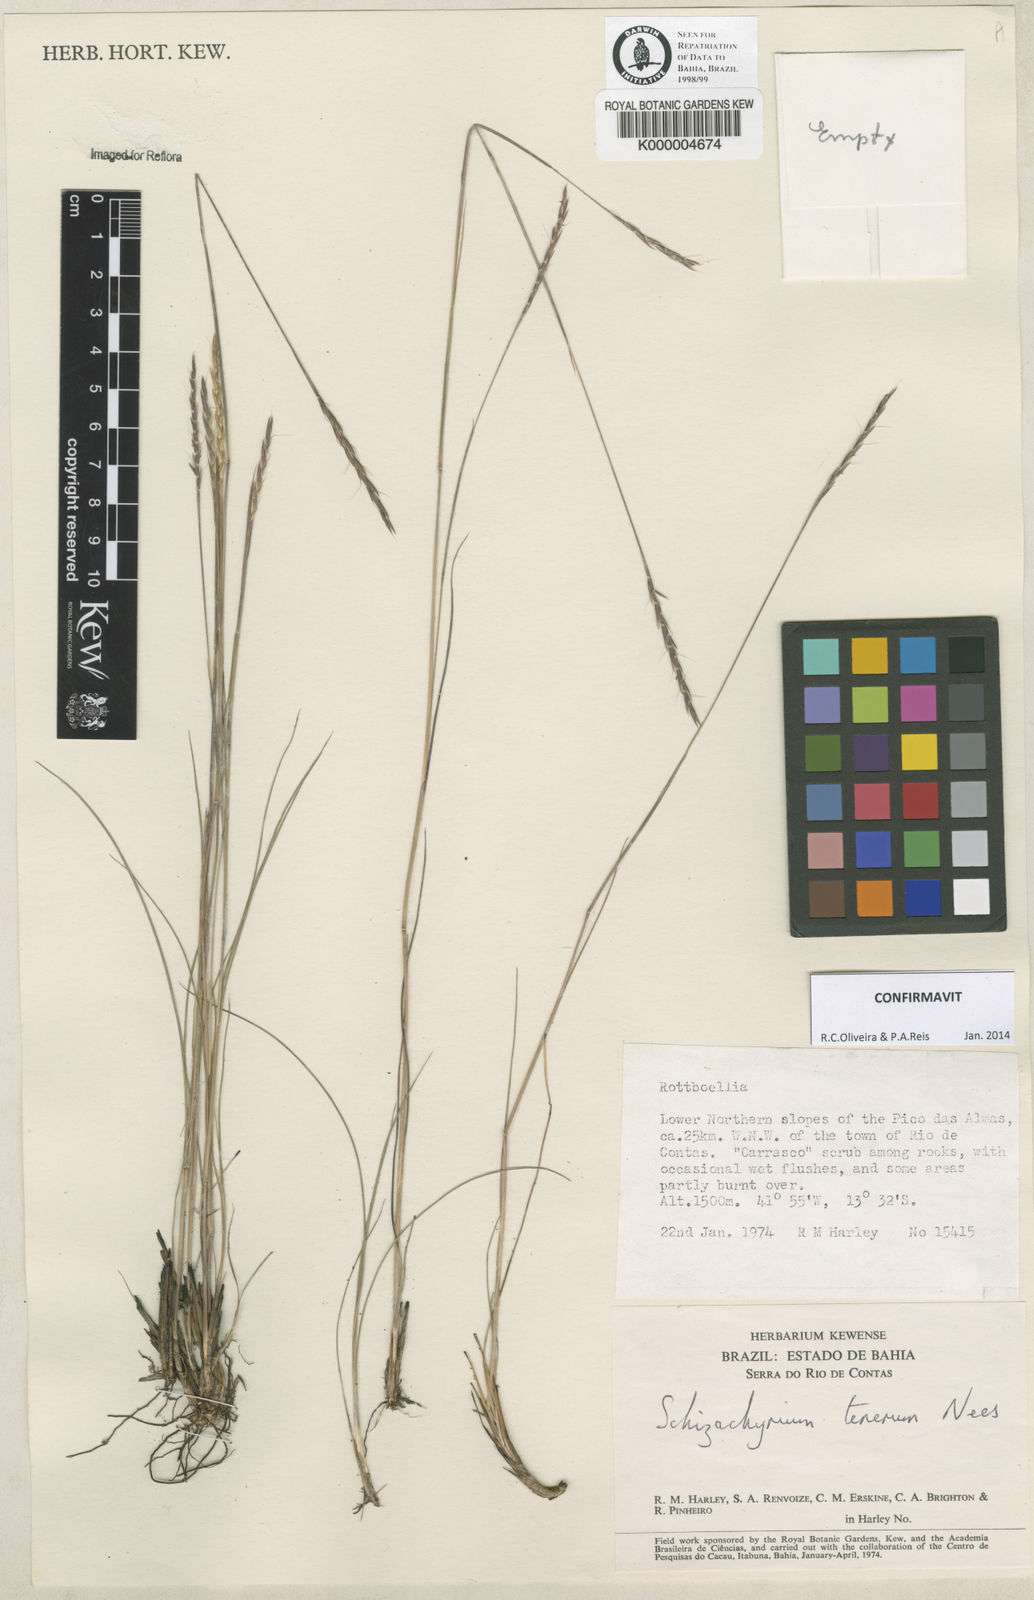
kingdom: Plantae
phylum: Tracheophyta
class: Liliopsida
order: Poales
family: Poaceae
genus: Andropogon
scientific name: Andropogon tener
